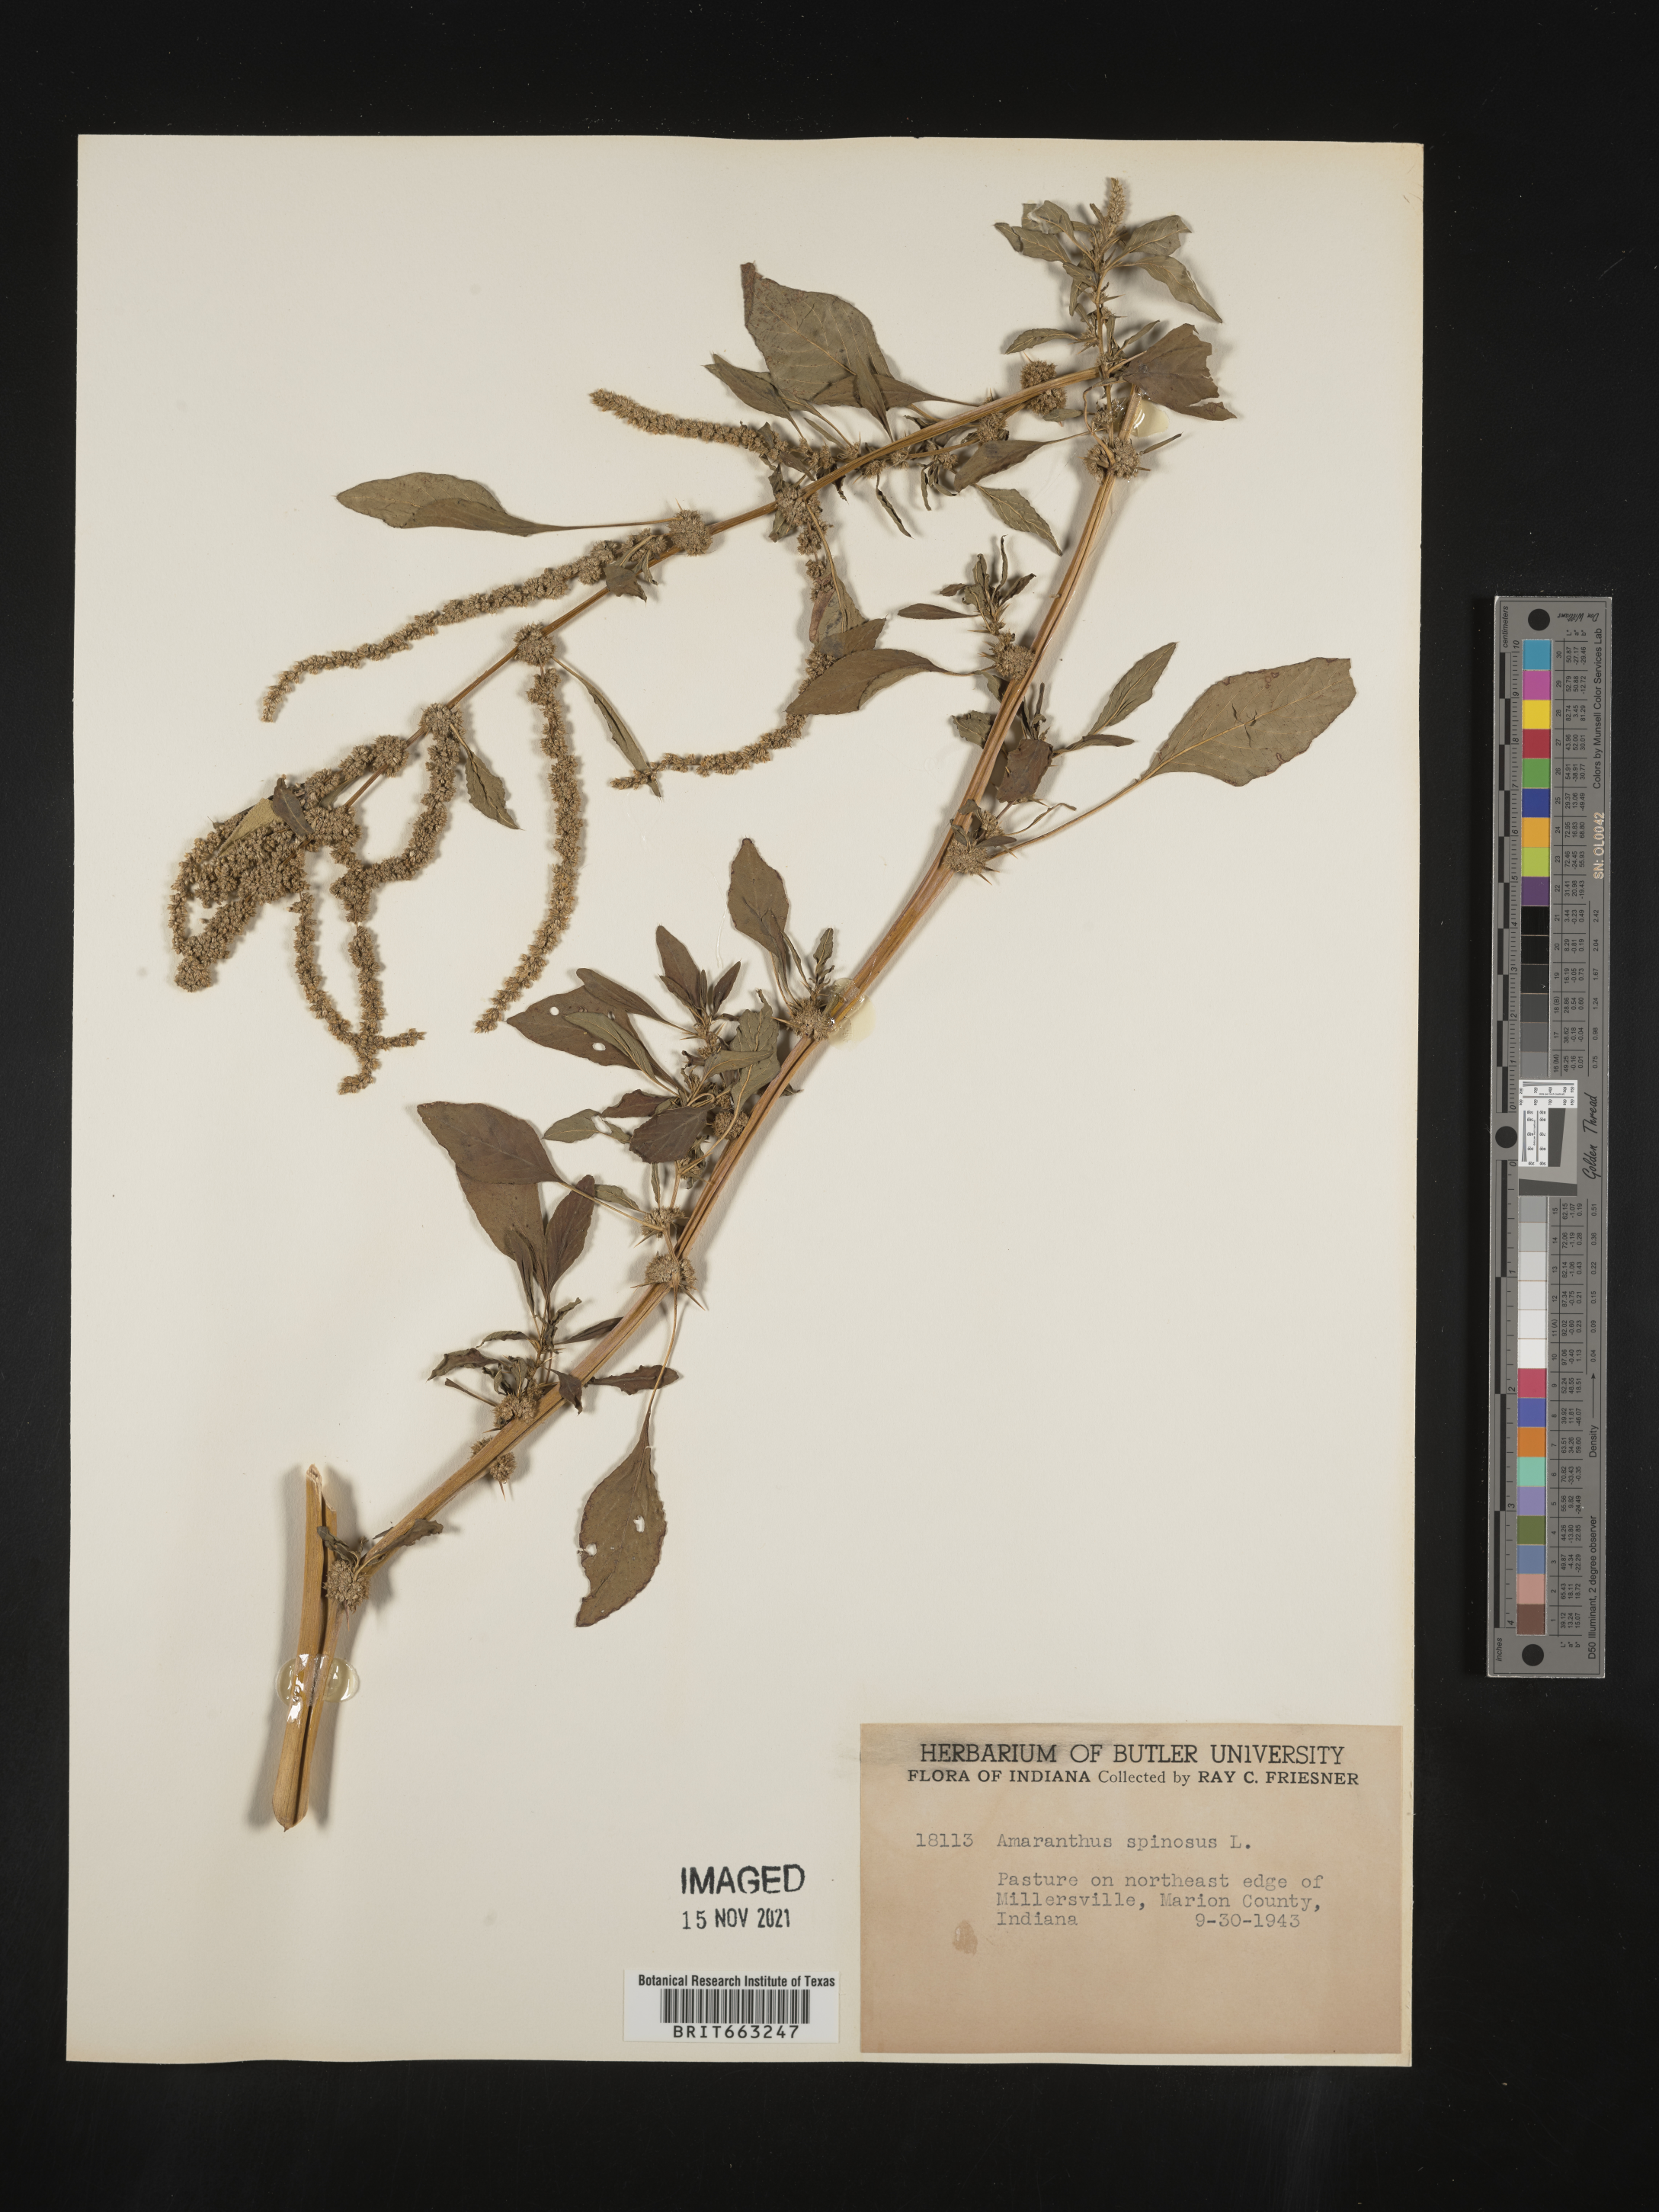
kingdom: Plantae
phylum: Tracheophyta
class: Magnoliopsida
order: Caryophyllales
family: Amaranthaceae
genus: Amaranthus
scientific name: Amaranthus spinosus
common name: Spiny amaranth
